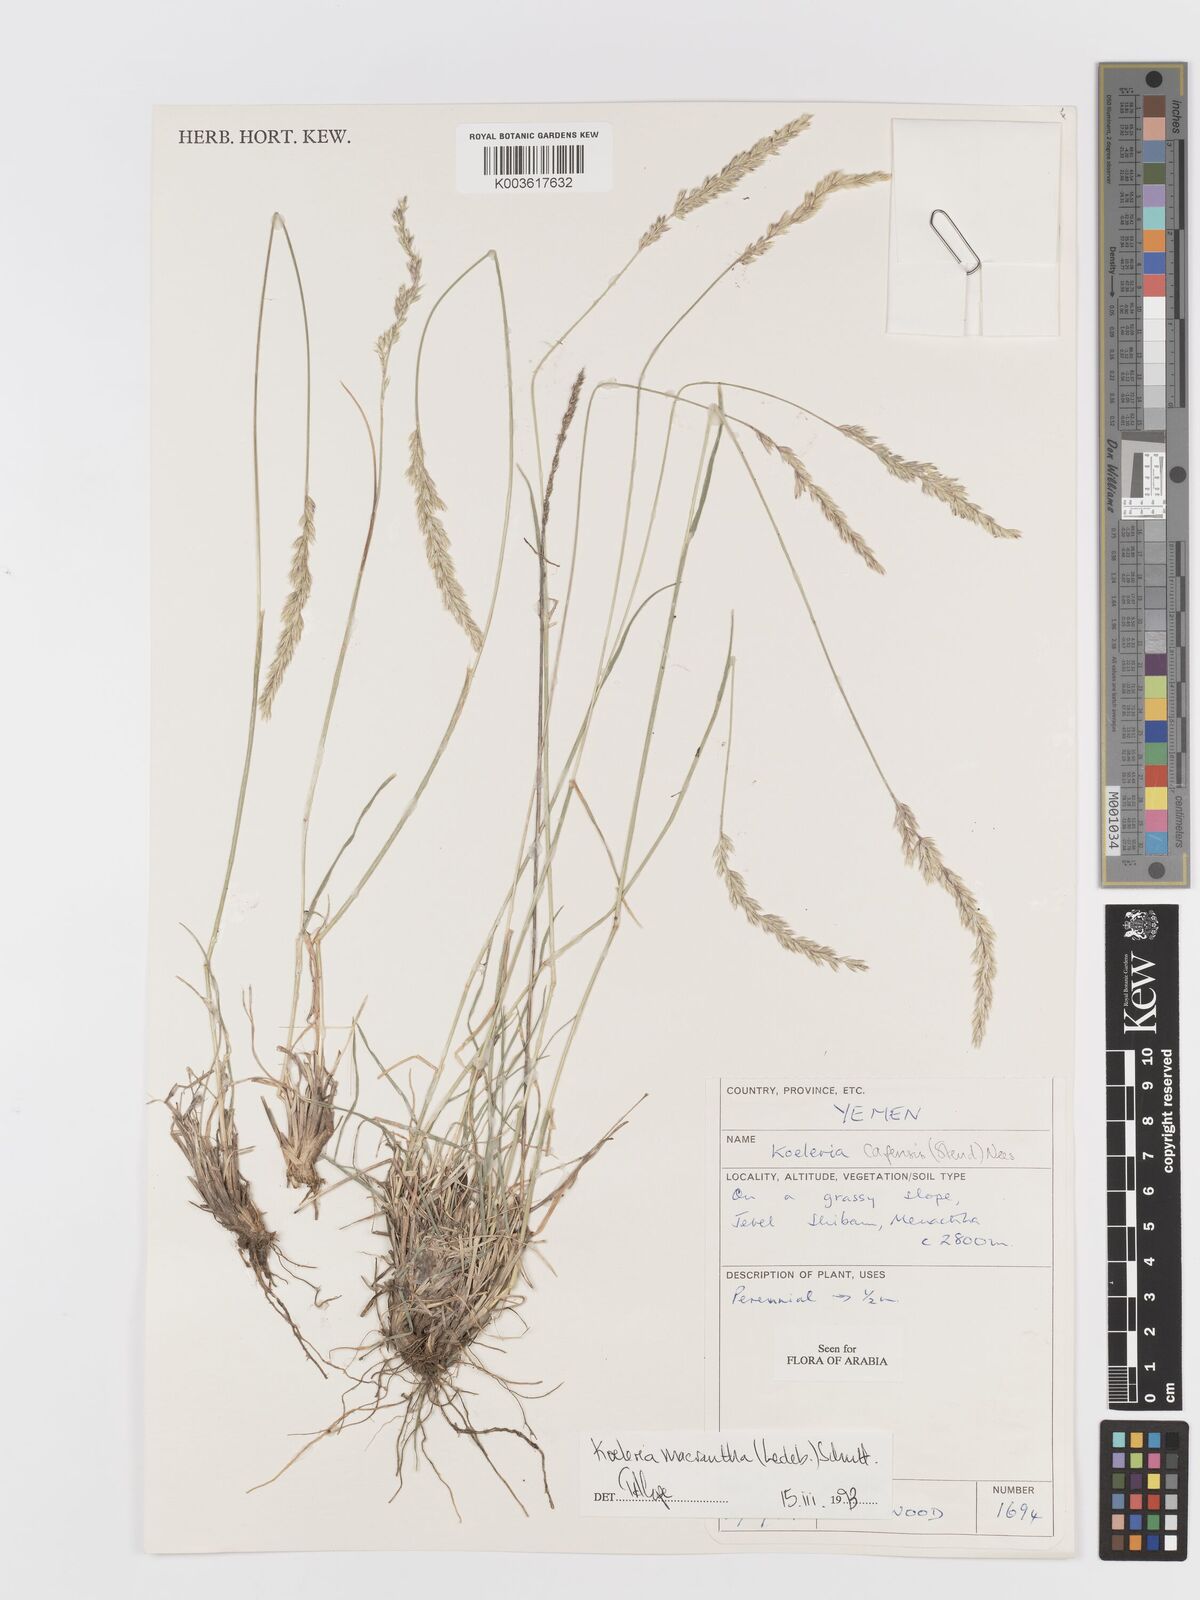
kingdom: Plantae
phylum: Tracheophyta
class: Liliopsida
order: Poales
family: Poaceae
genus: Koeleria
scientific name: Koeleria macrantha
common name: Crested hair-grass
